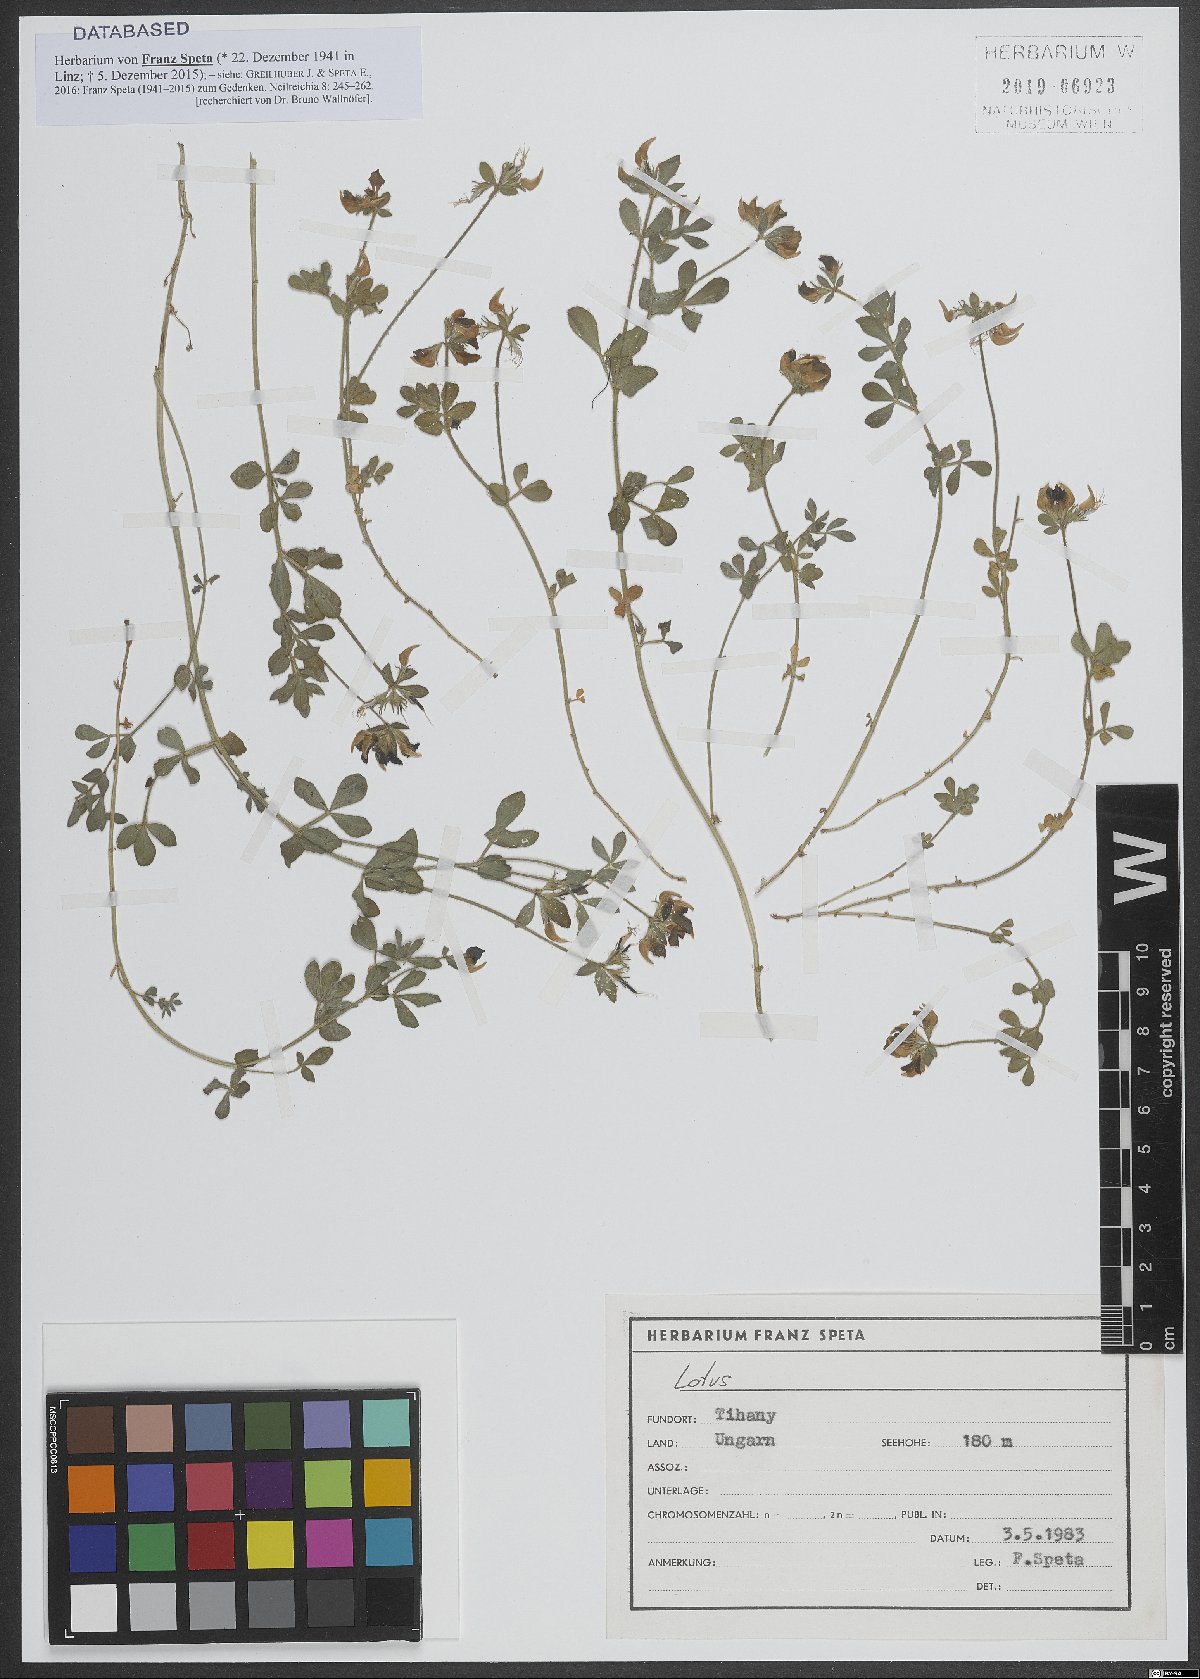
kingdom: Plantae
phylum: Tracheophyta
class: Magnoliopsida
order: Fabales
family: Fabaceae
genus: Lotus
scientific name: Lotus
